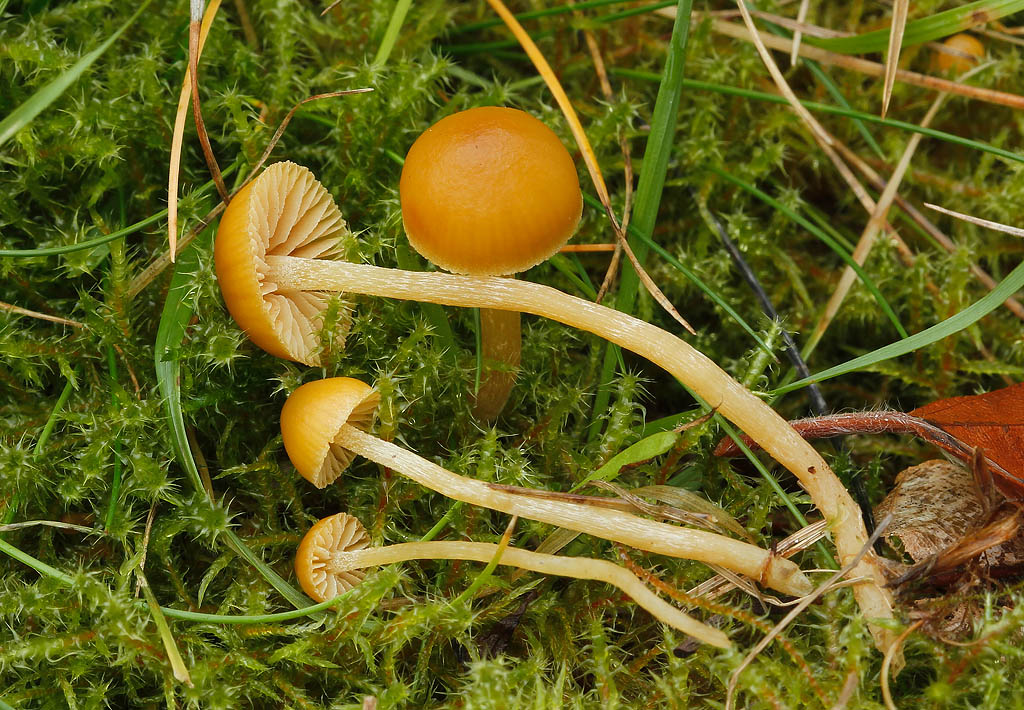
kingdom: Fungi
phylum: Basidiomycota
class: Agaricomycetes
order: Agaricales
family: Hymenogastraceae
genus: Galerina
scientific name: Galerina pumila
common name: honninggul hjelmhat
